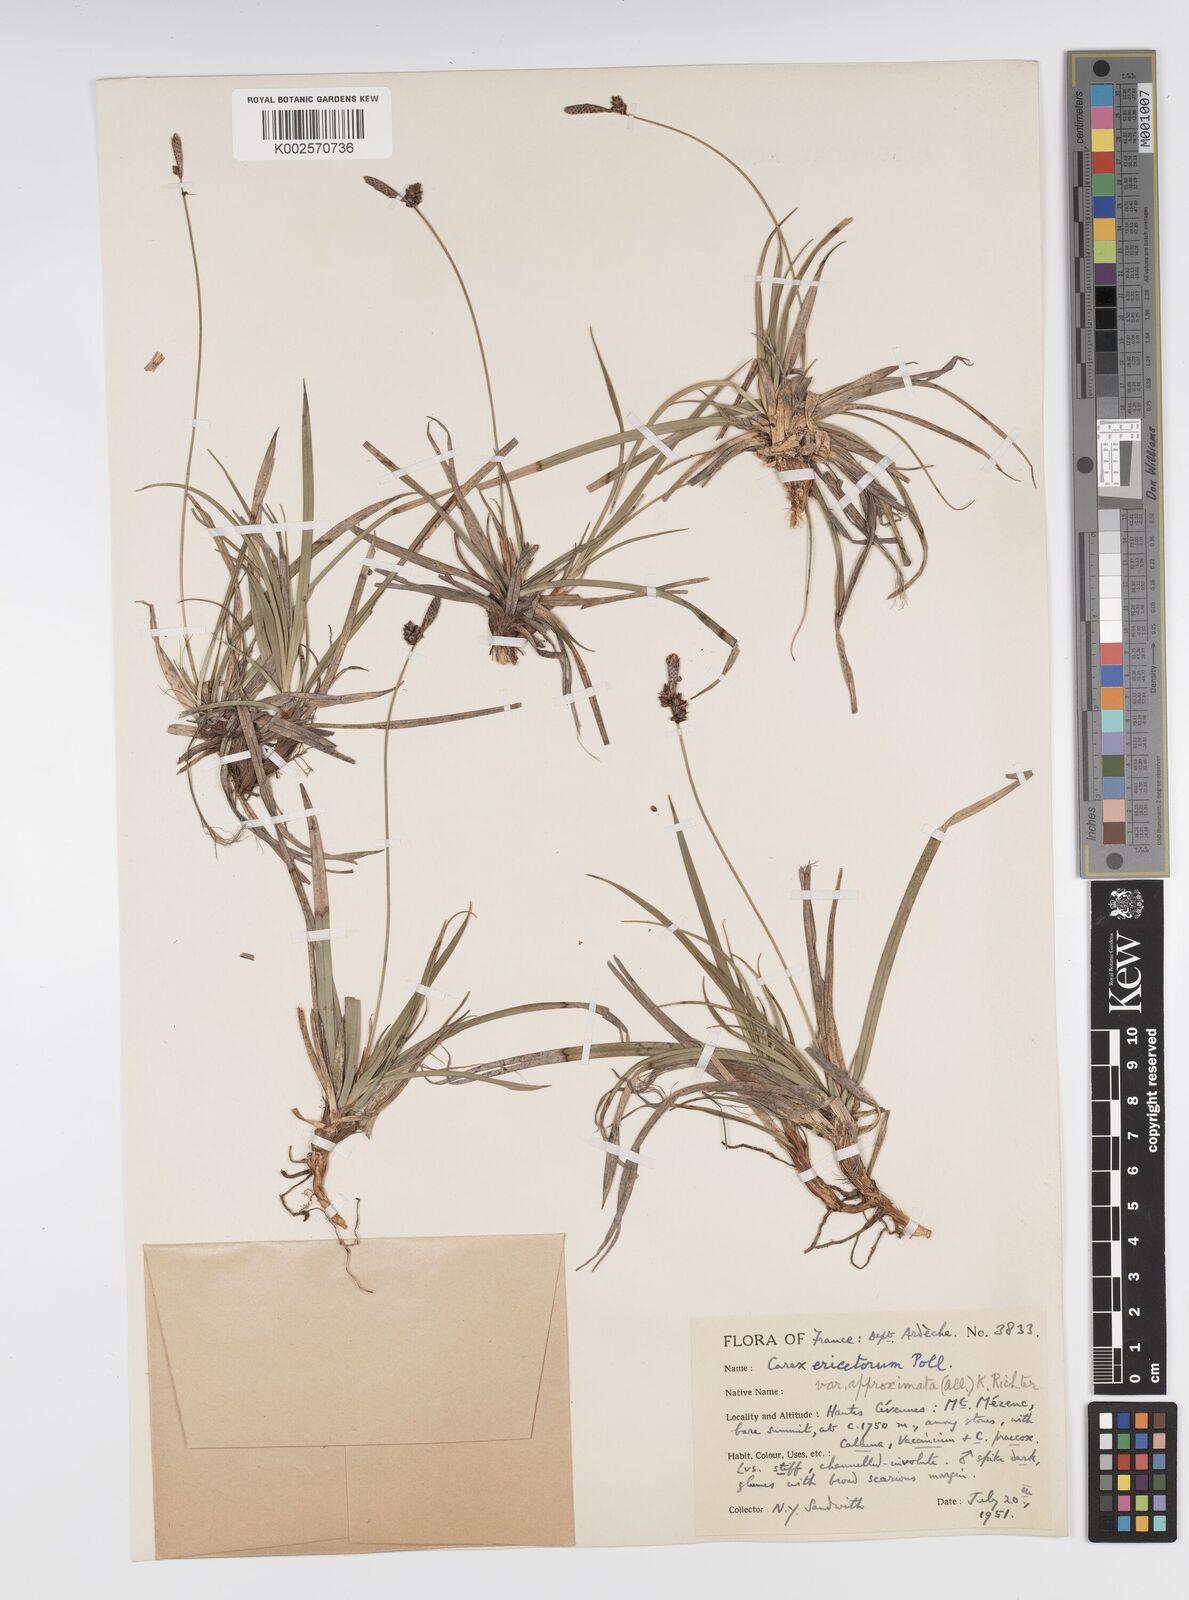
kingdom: Plantae
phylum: Tracheophyta
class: Liliopsida
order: Poales
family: Cyperaceae
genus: Carex
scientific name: Carex ericetorum
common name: Rare spring-sedge
